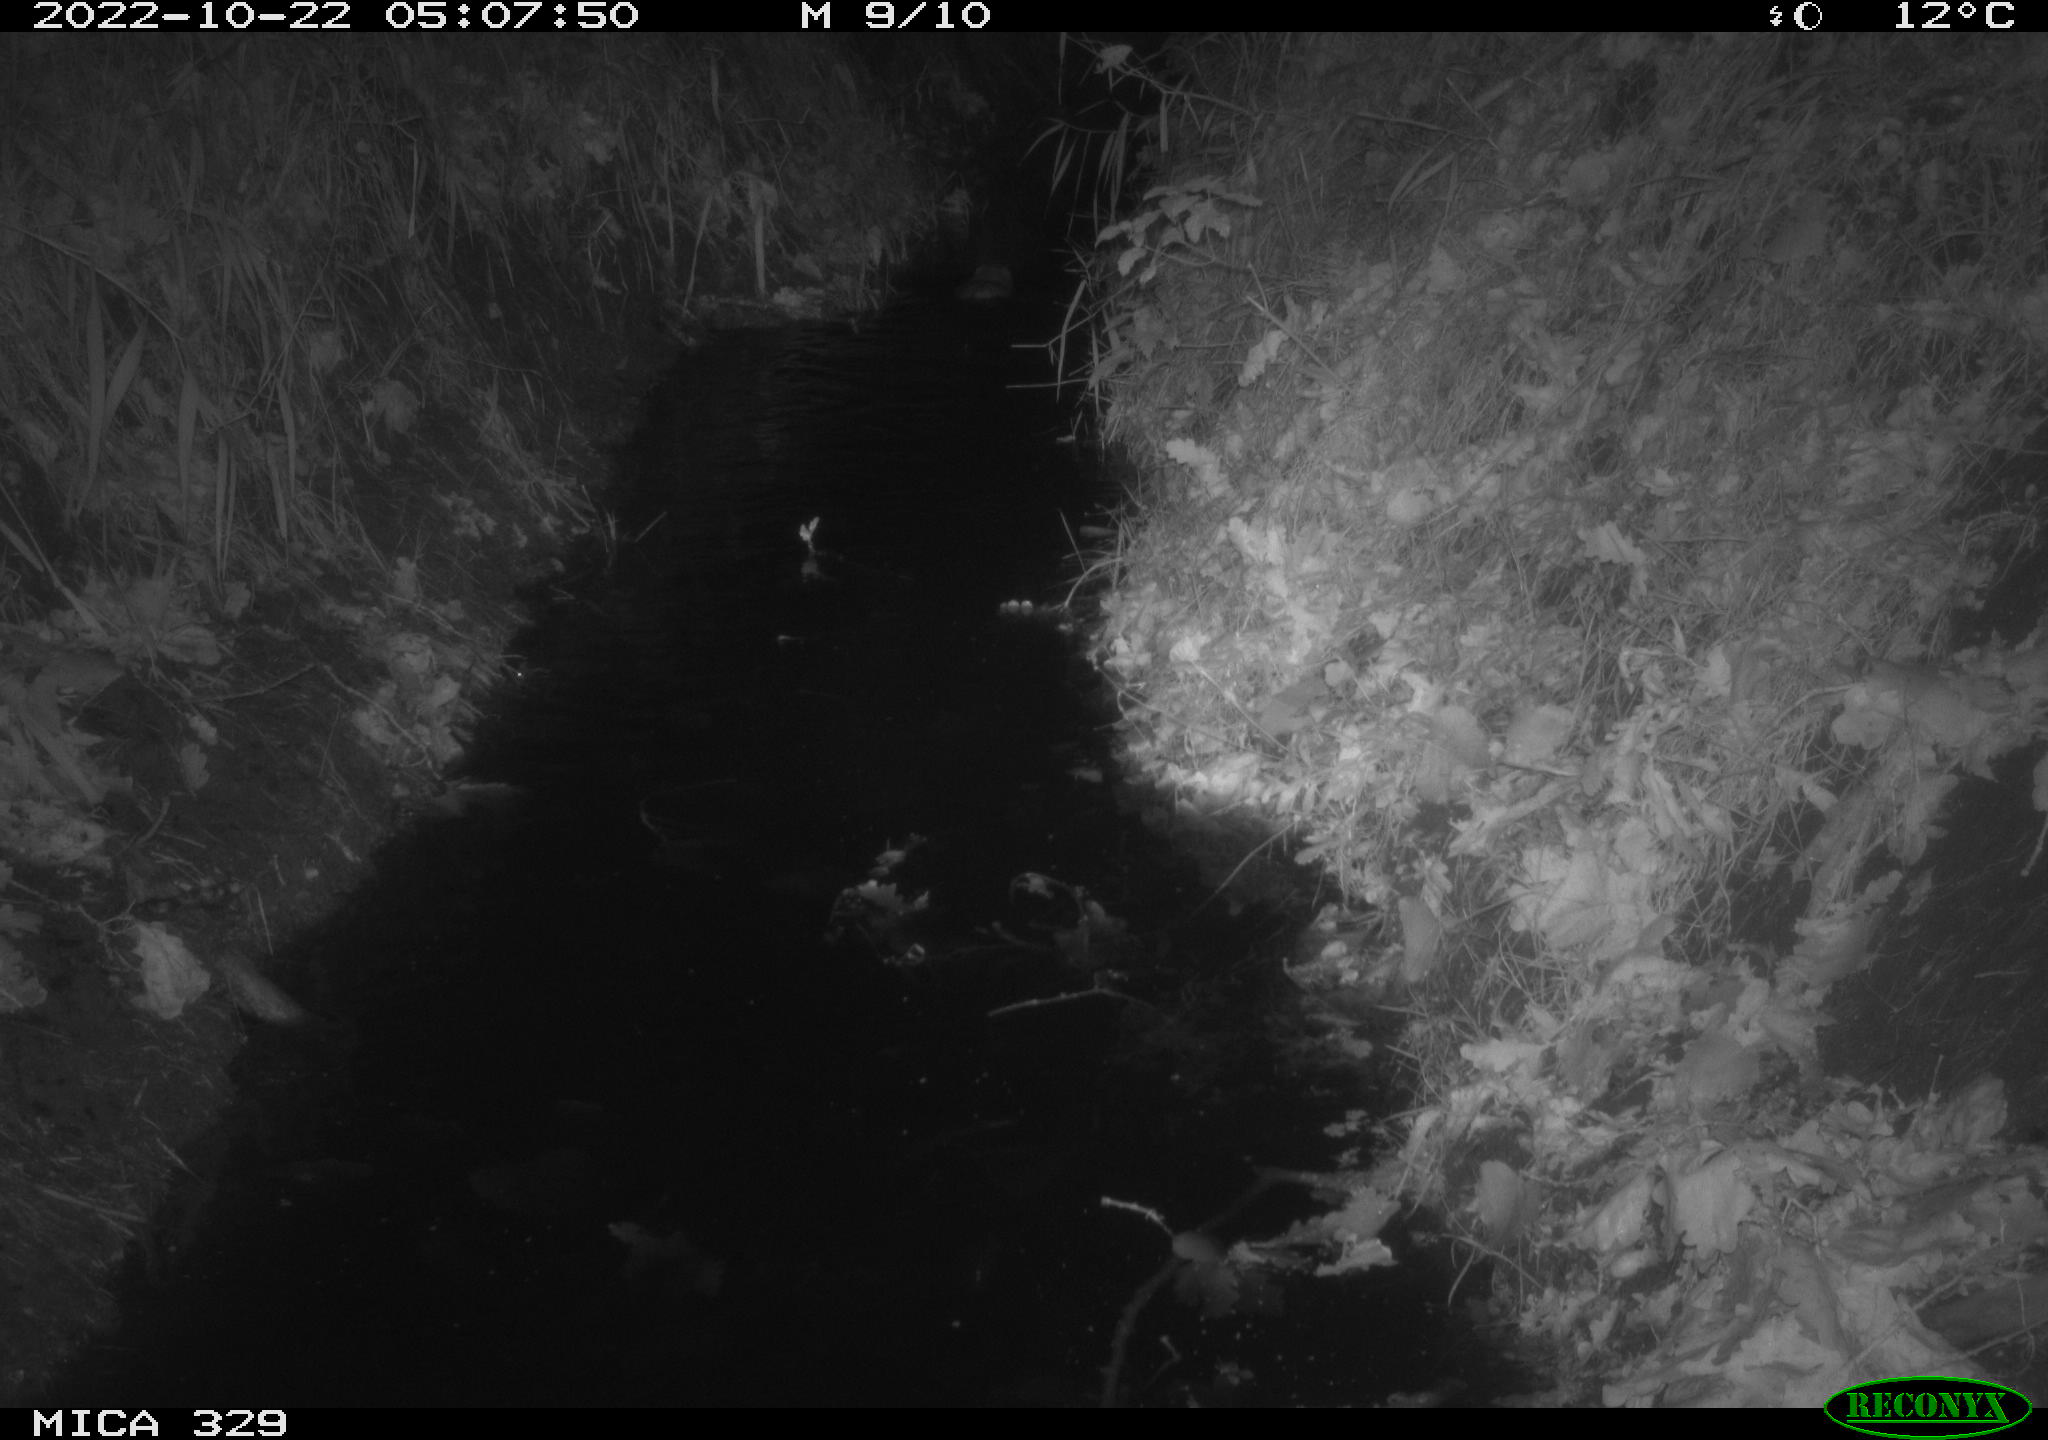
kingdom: Animalia
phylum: Chordata
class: Mammalia
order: Rodentia
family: Cricetidae
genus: Ondatra
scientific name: Ondatra zibethicus
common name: Muskrat
